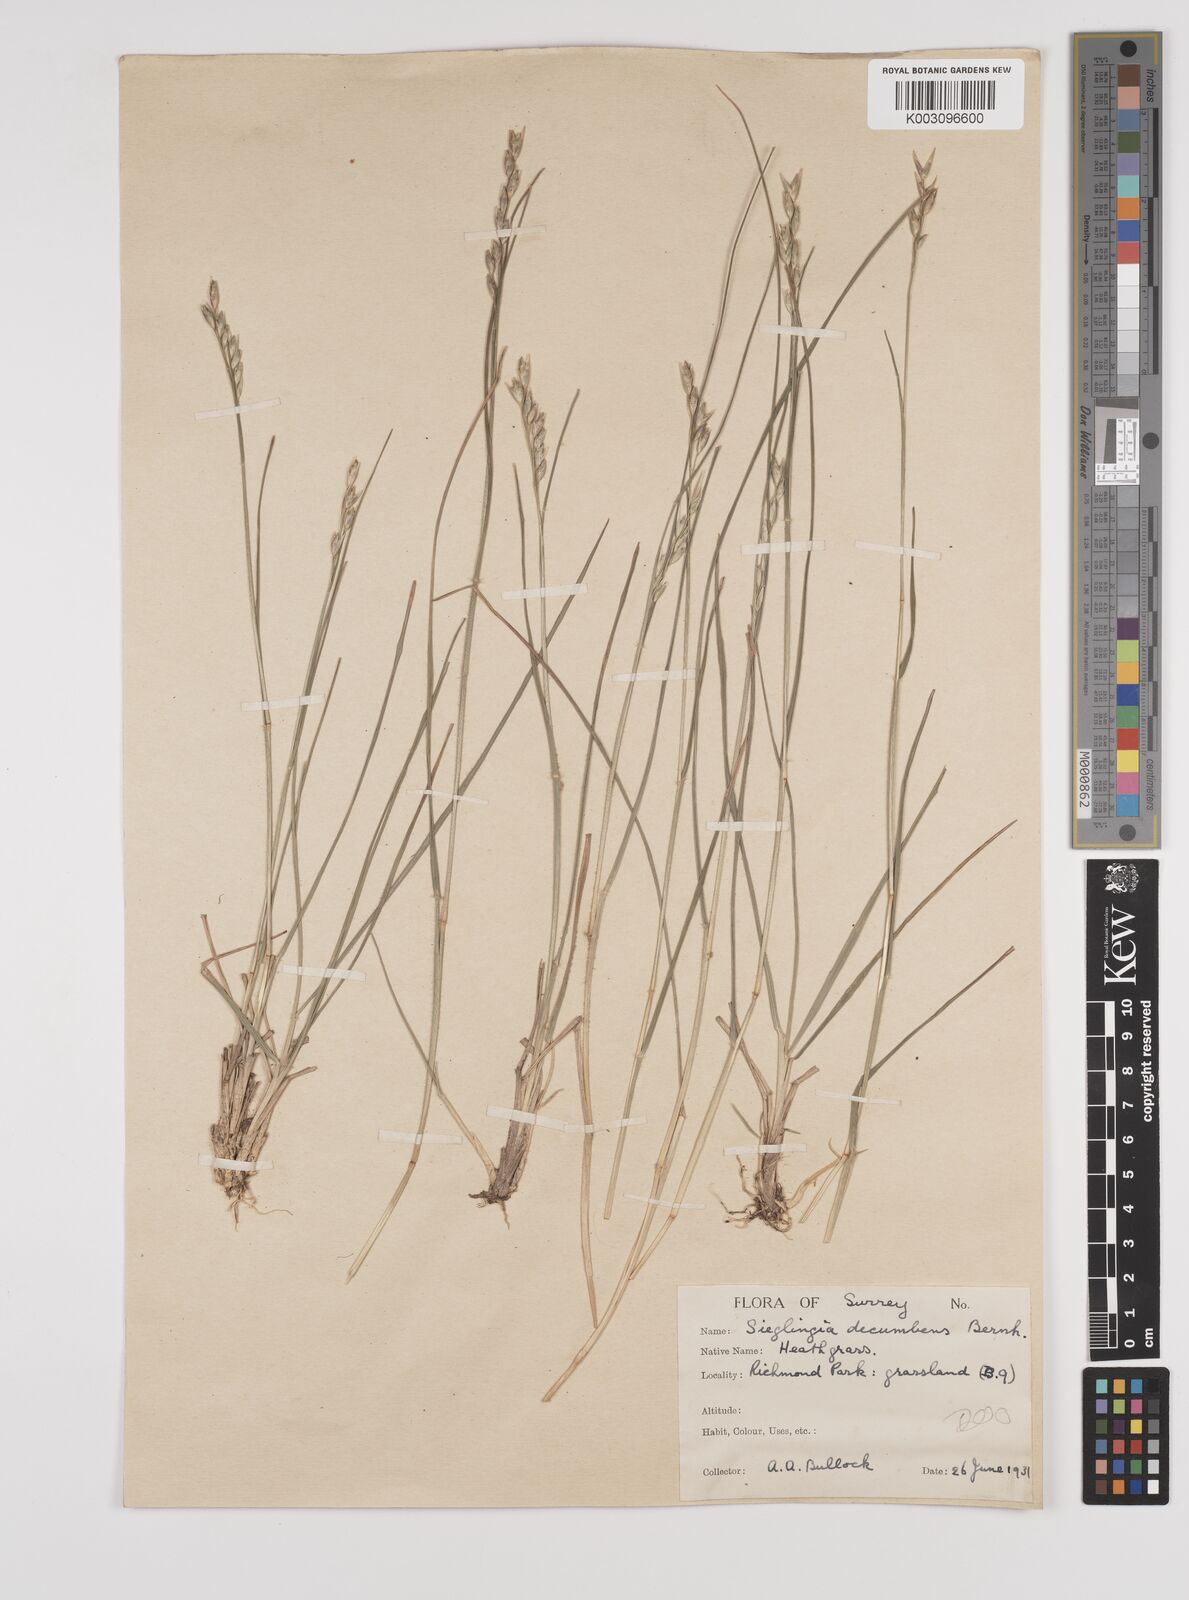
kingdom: Plantae
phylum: Tracheophyta
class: Liliopsida
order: Poales
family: Poaceae
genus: Danthonia
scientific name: Danthonia decumbens
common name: Common heathgrass
